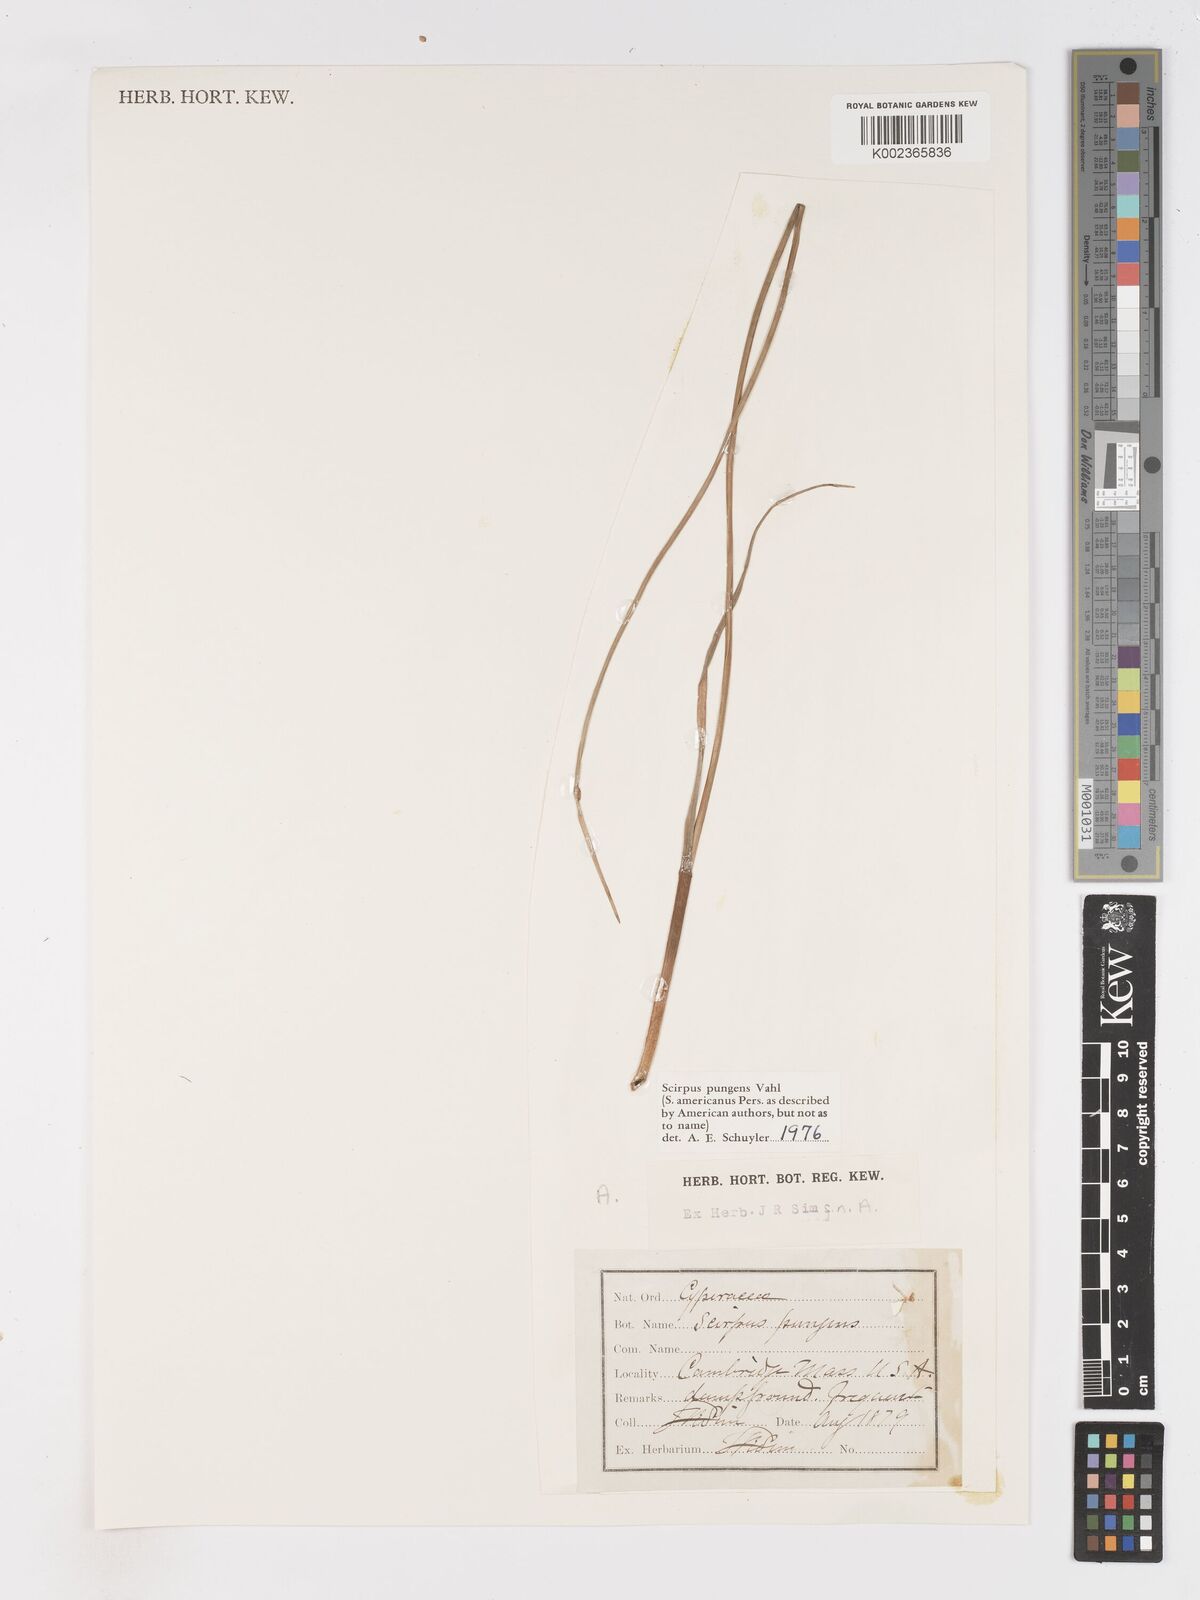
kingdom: Plantae
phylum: Tracheophyta
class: Liliopsida
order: Poales
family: Cyperaceae
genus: Schoenoplectus
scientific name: Schoenoplectus pungens
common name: Sharp club-rush
